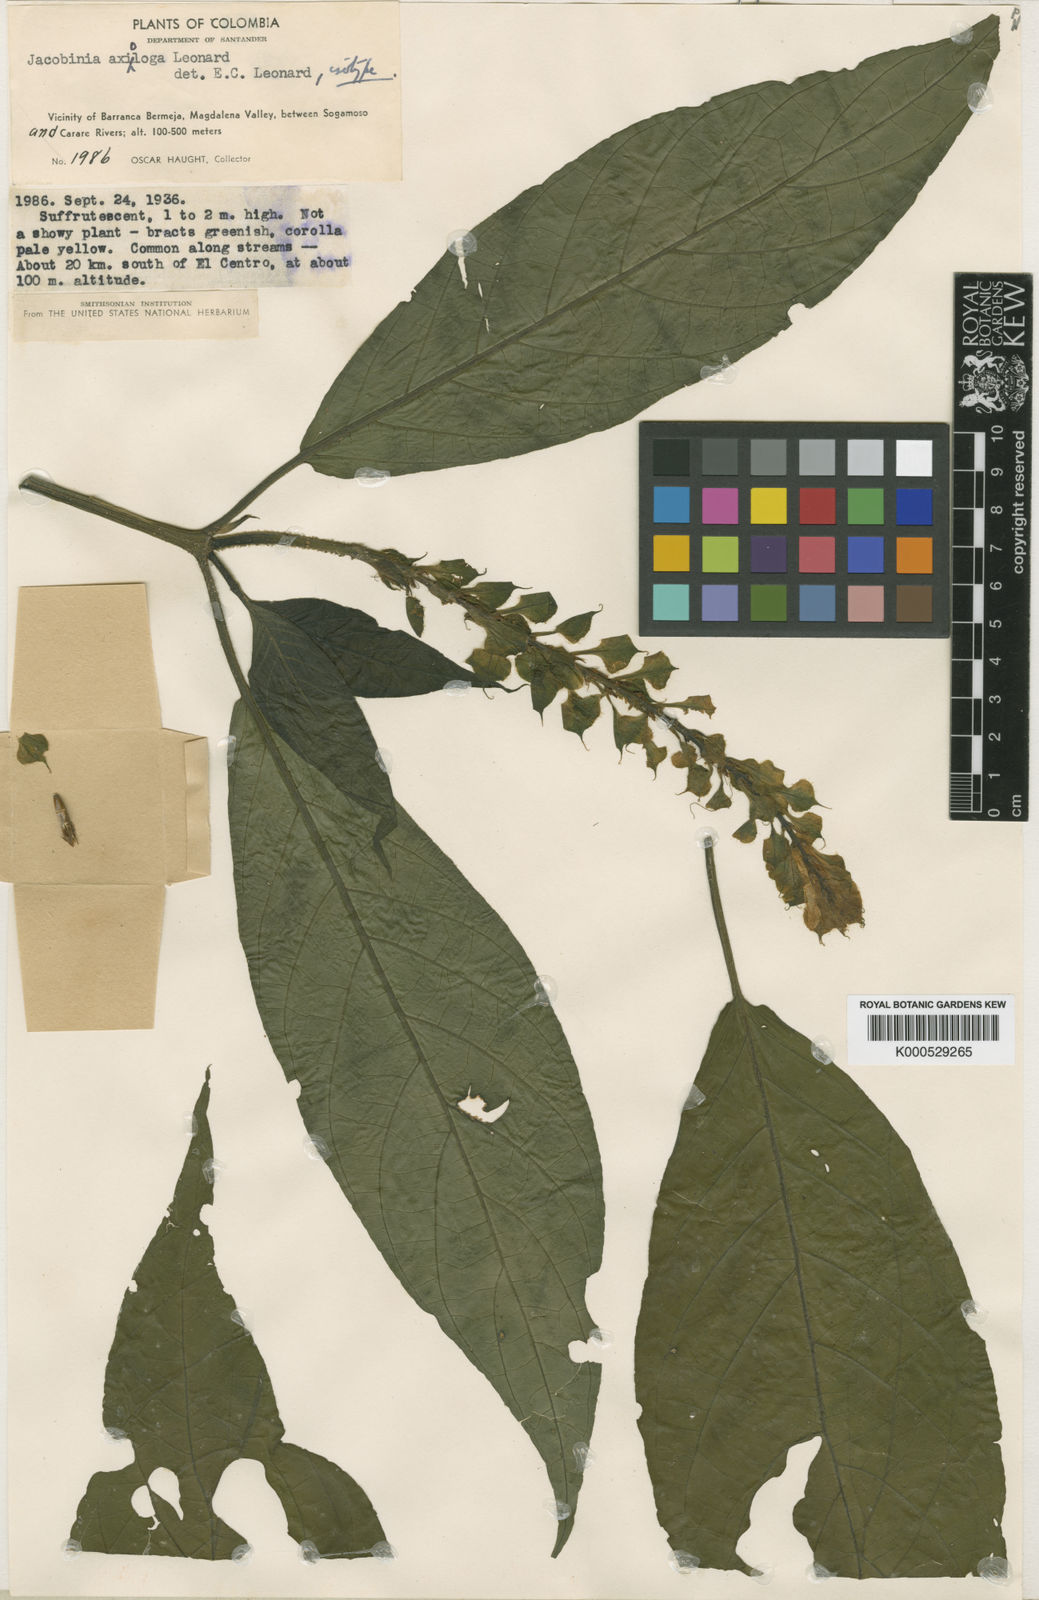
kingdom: Plantae
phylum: Tracheophyta
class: Magnoliopsida
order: Lamiales
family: Acanthaceae
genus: Justicia
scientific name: Justicia axiologa
